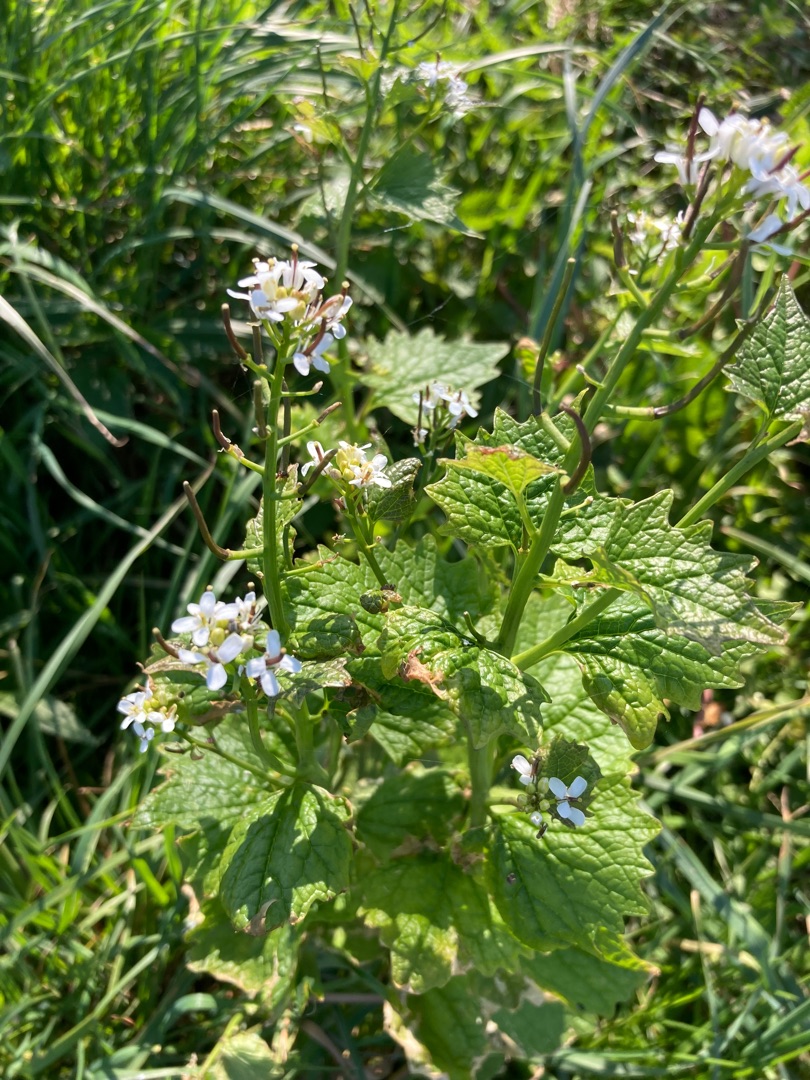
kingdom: Plantae
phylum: Tracheophyta
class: Magnoliopsida
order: Brassicales
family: Brassicaceae
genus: Alliaria
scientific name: Alliaria petiolata
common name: Løgkarse
